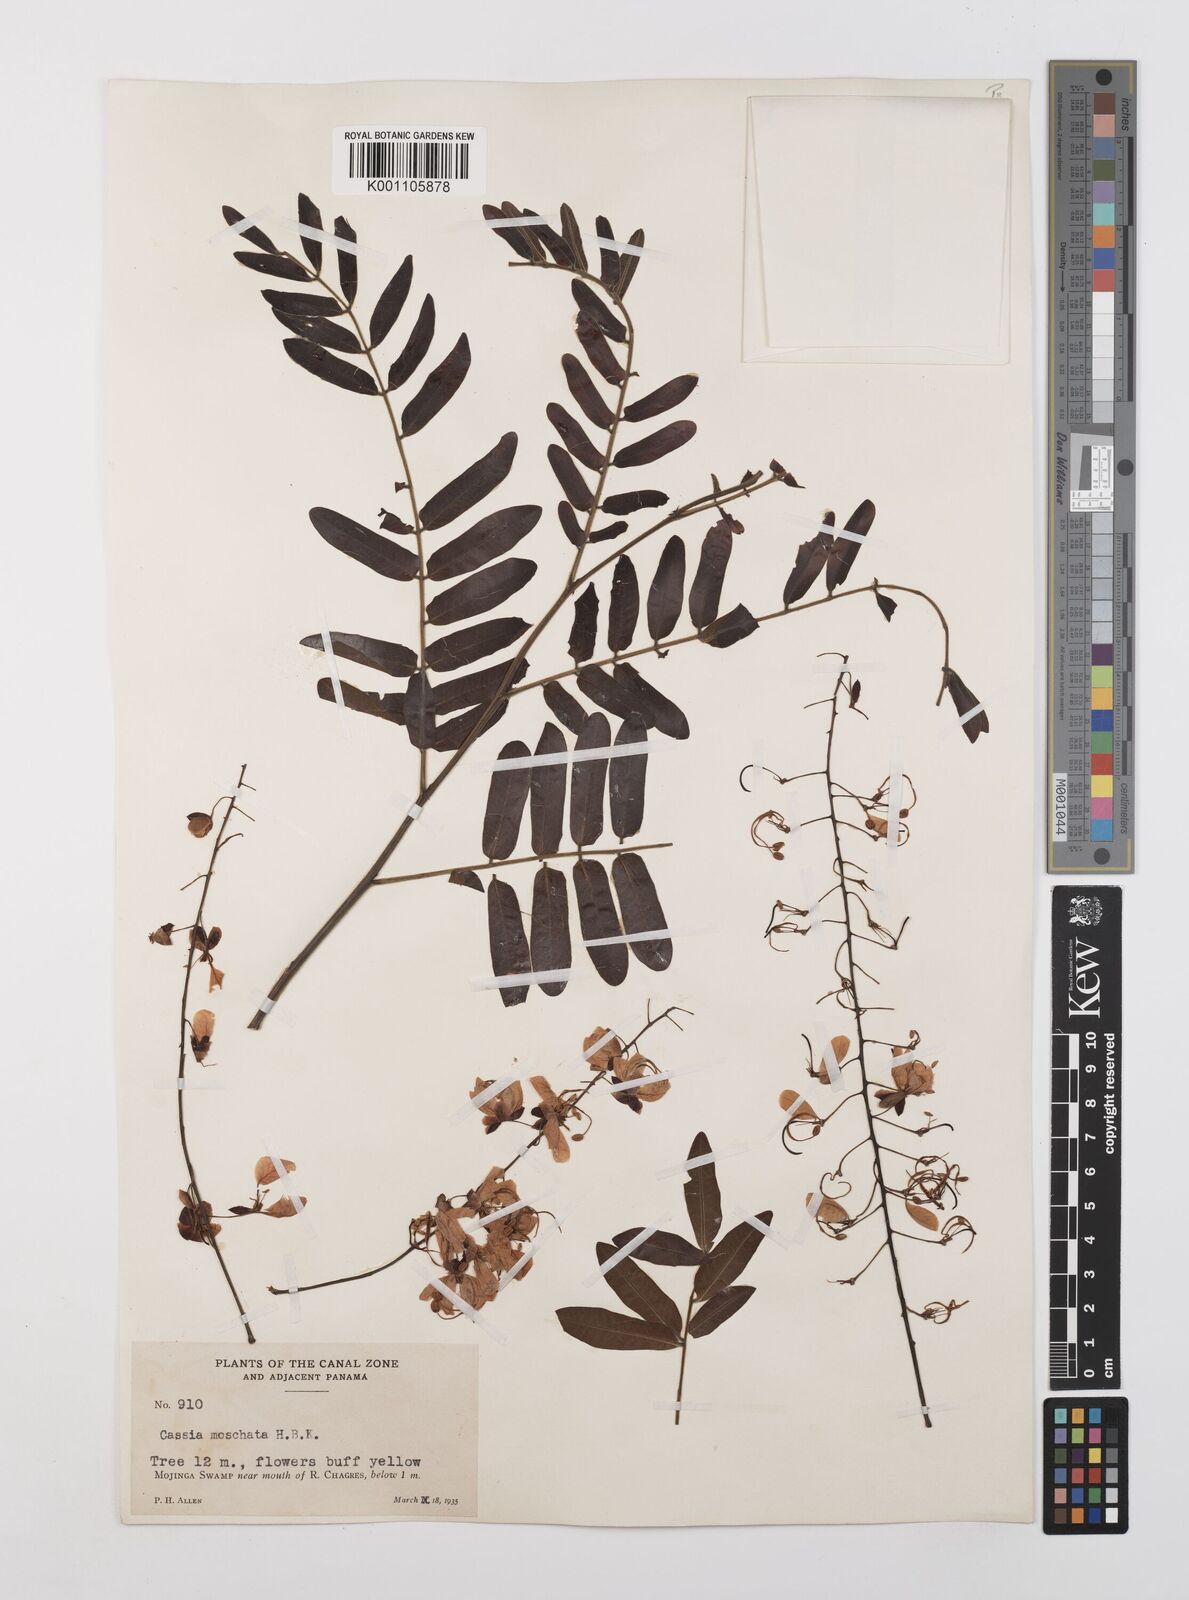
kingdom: Plantae
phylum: Tracheophyta
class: Magnoliopsida
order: Fabales
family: Fabaceae
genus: Cassia
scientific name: Cassia moschata
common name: Bronze shower tree
